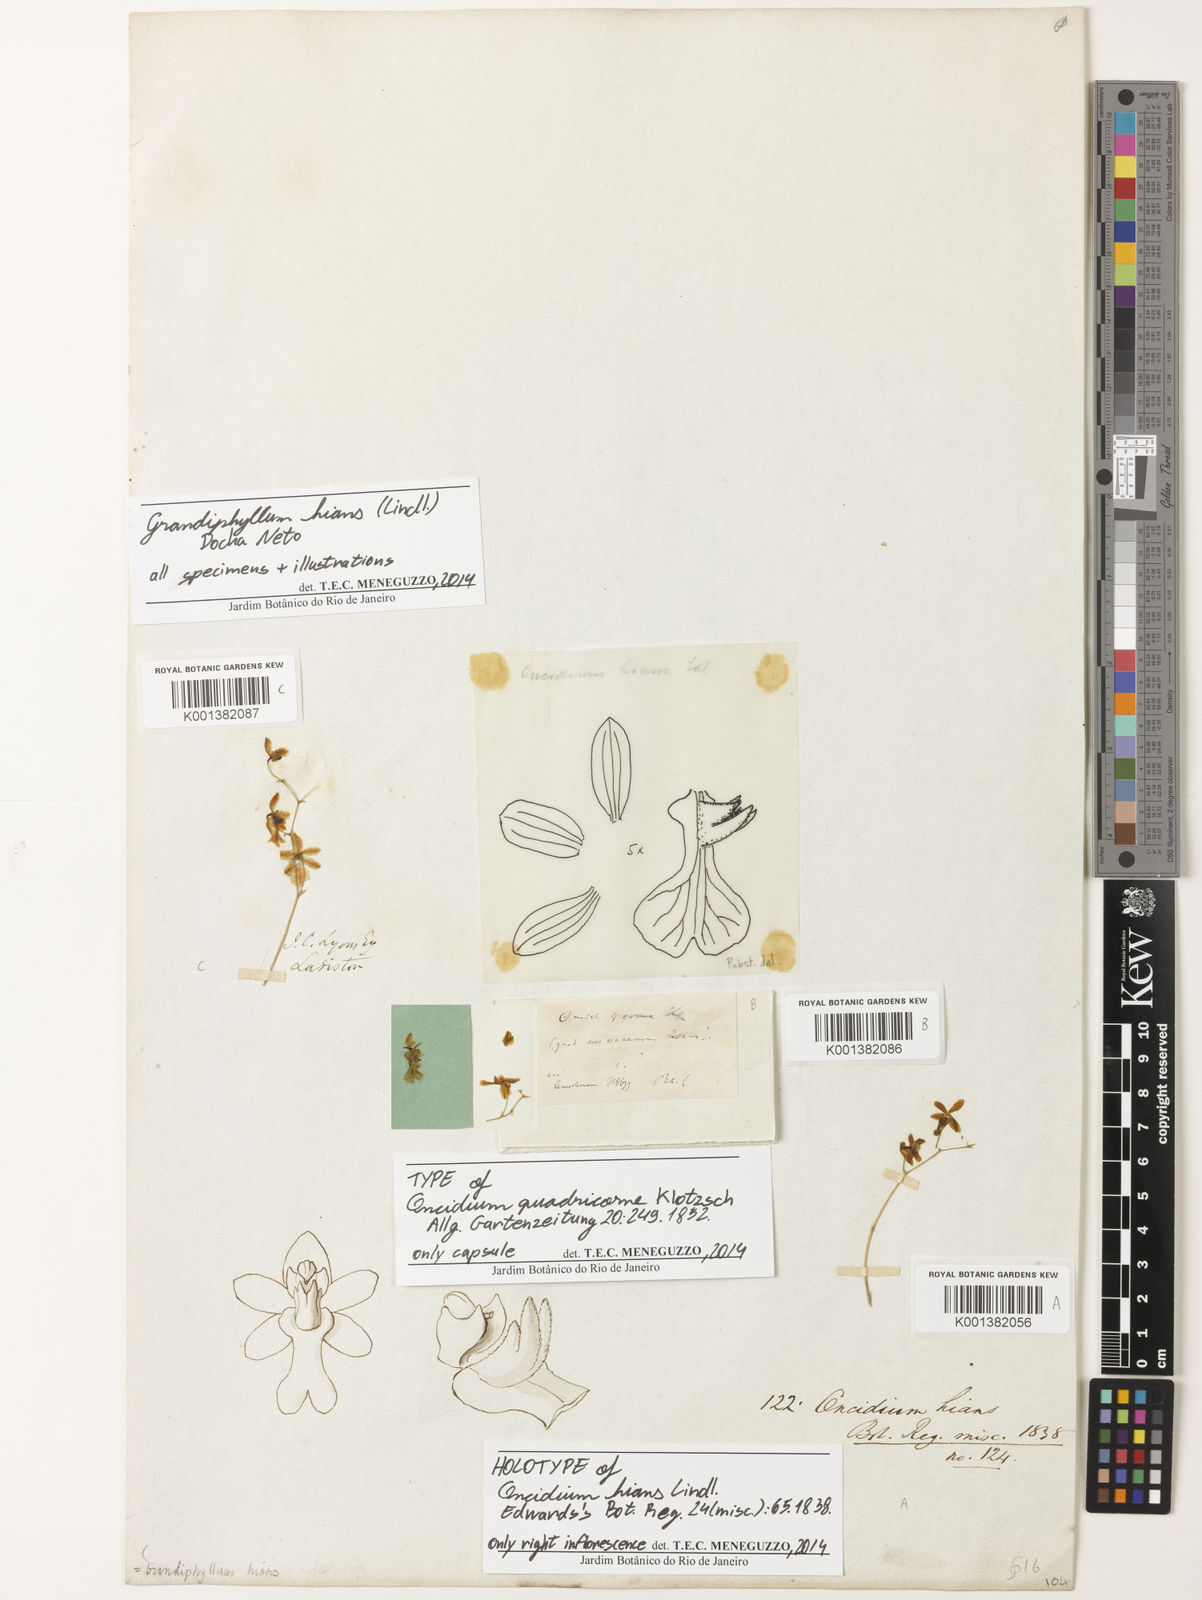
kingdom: Plantae
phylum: Tracheophyta
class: Liliopsida
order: Asparagales
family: Orchidaceae
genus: Grandiphyllum
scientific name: Grandiphyllum hians
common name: Mule-ear orchid
